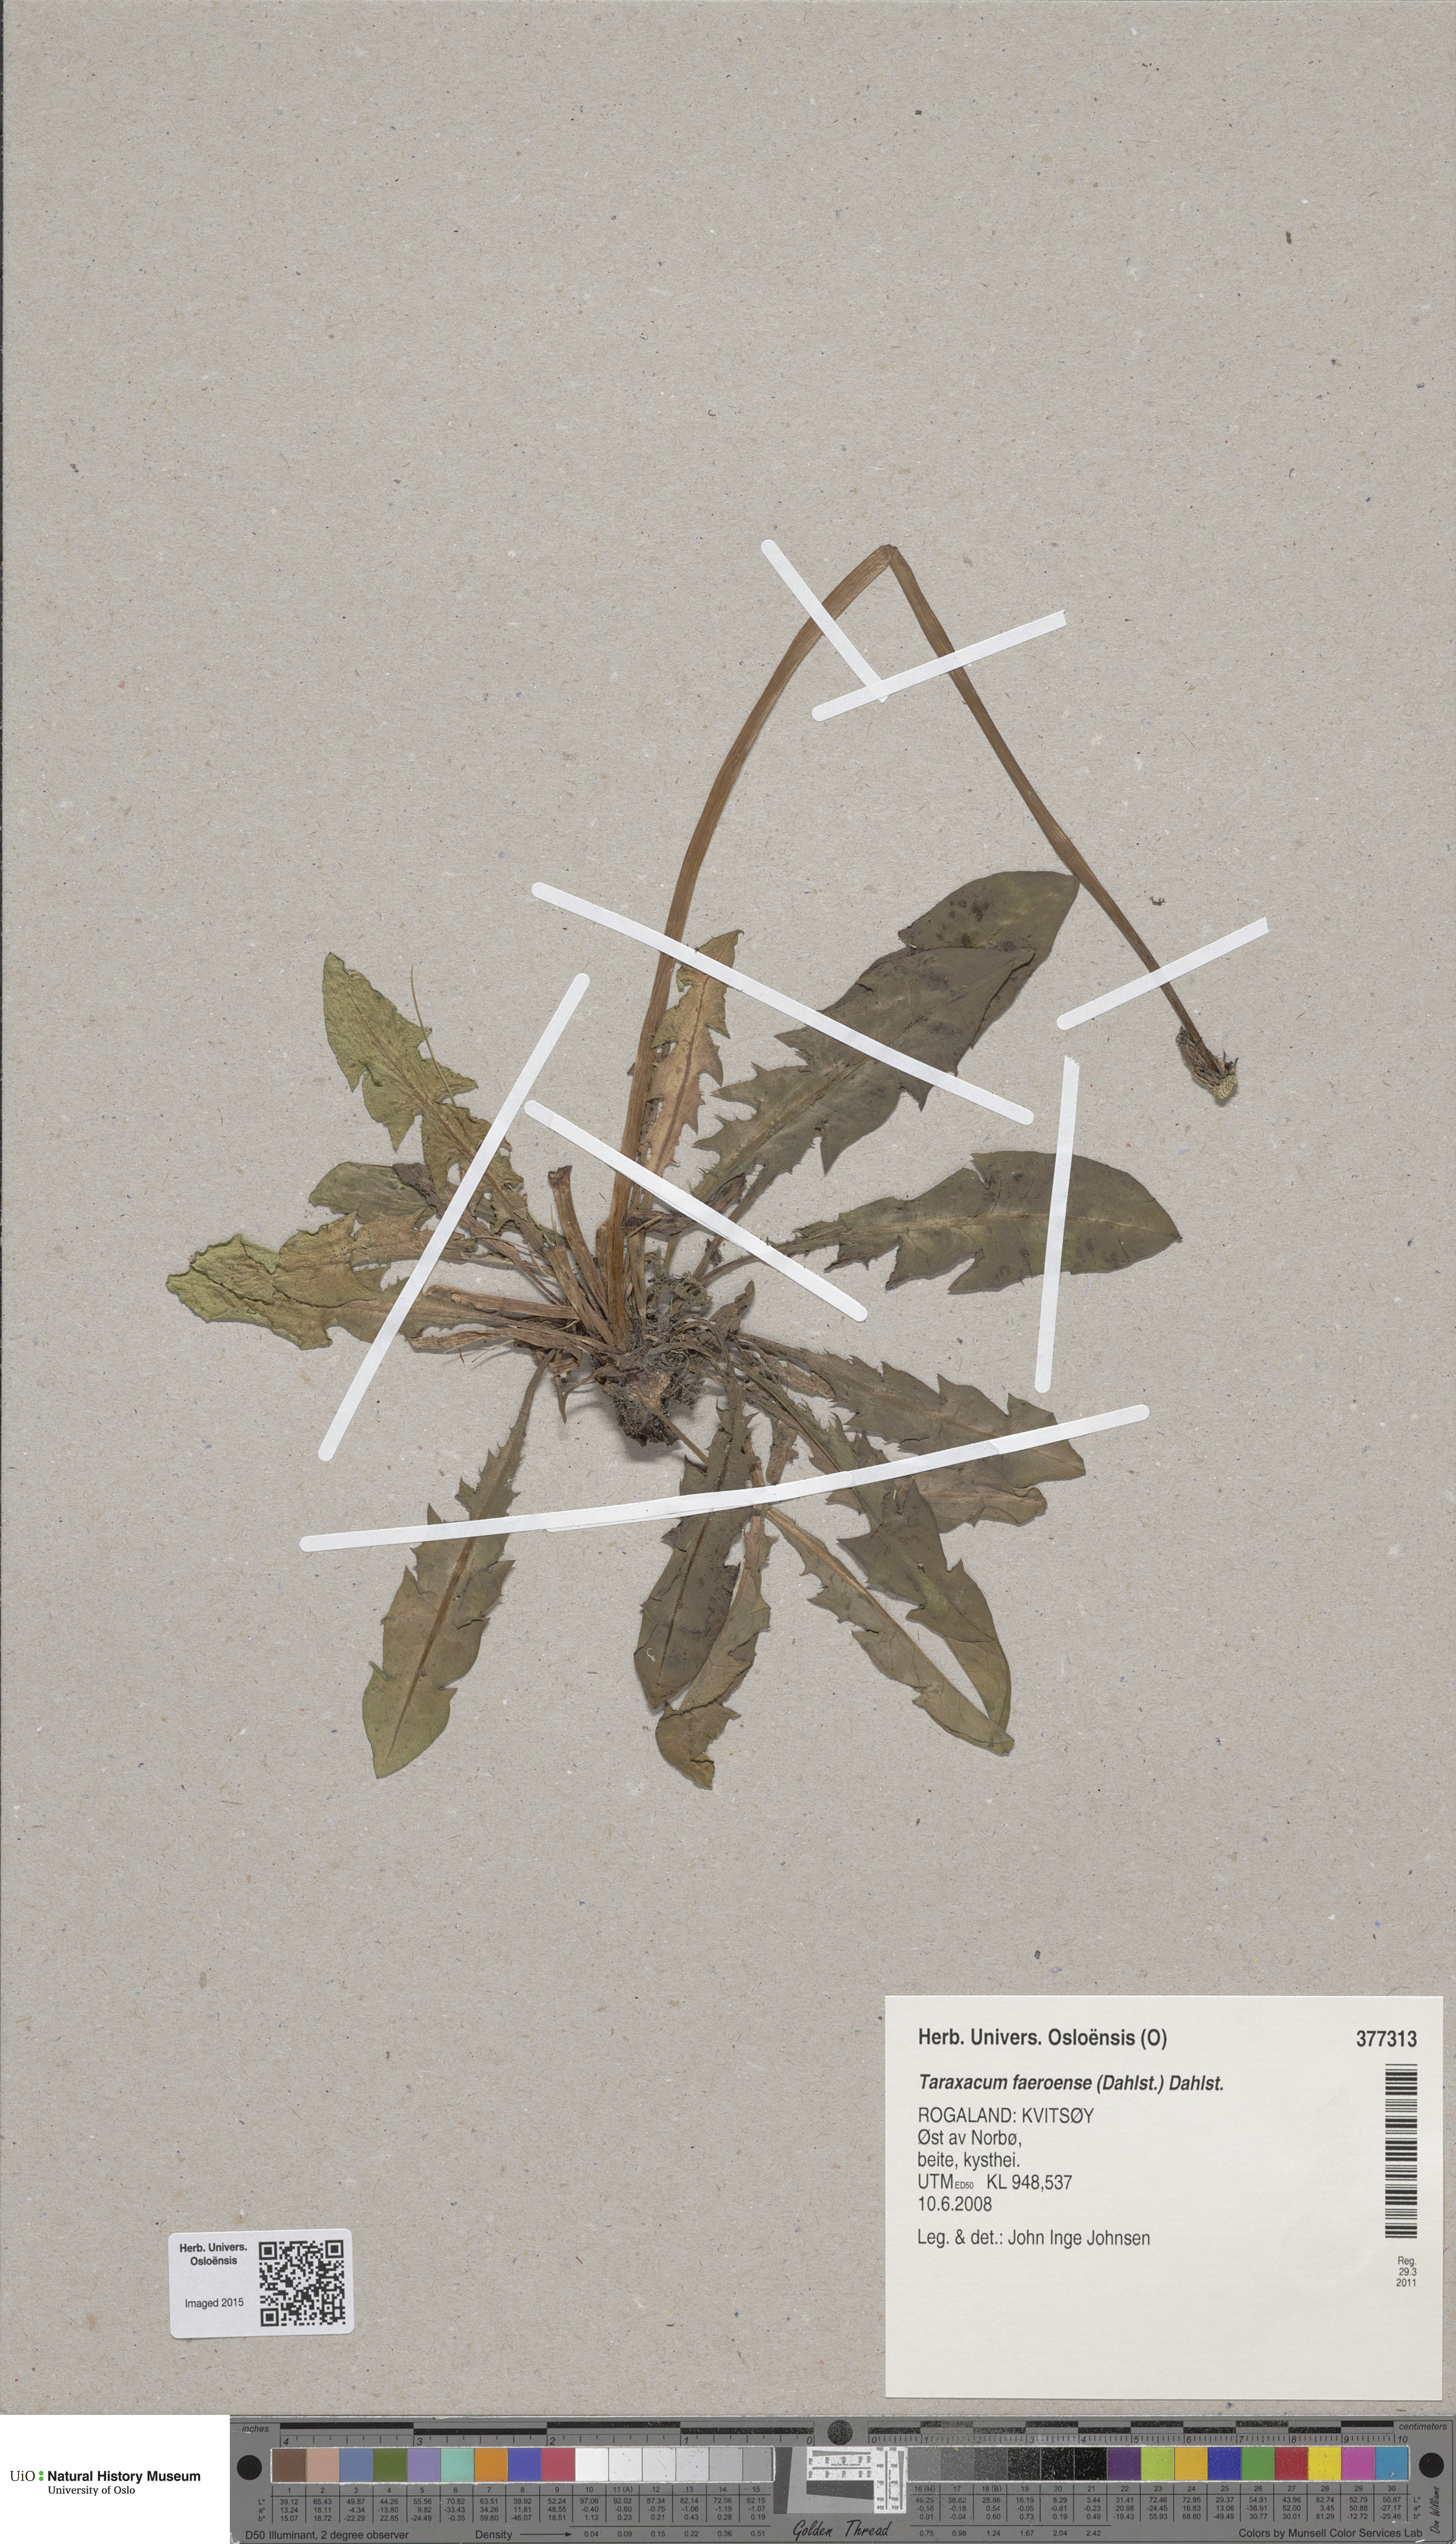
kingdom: Plantae
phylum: Tracheophyta
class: Magnoliopsida
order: Asterales
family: Asteraceae
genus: Taraxacum
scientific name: Taraxacum faeroense
